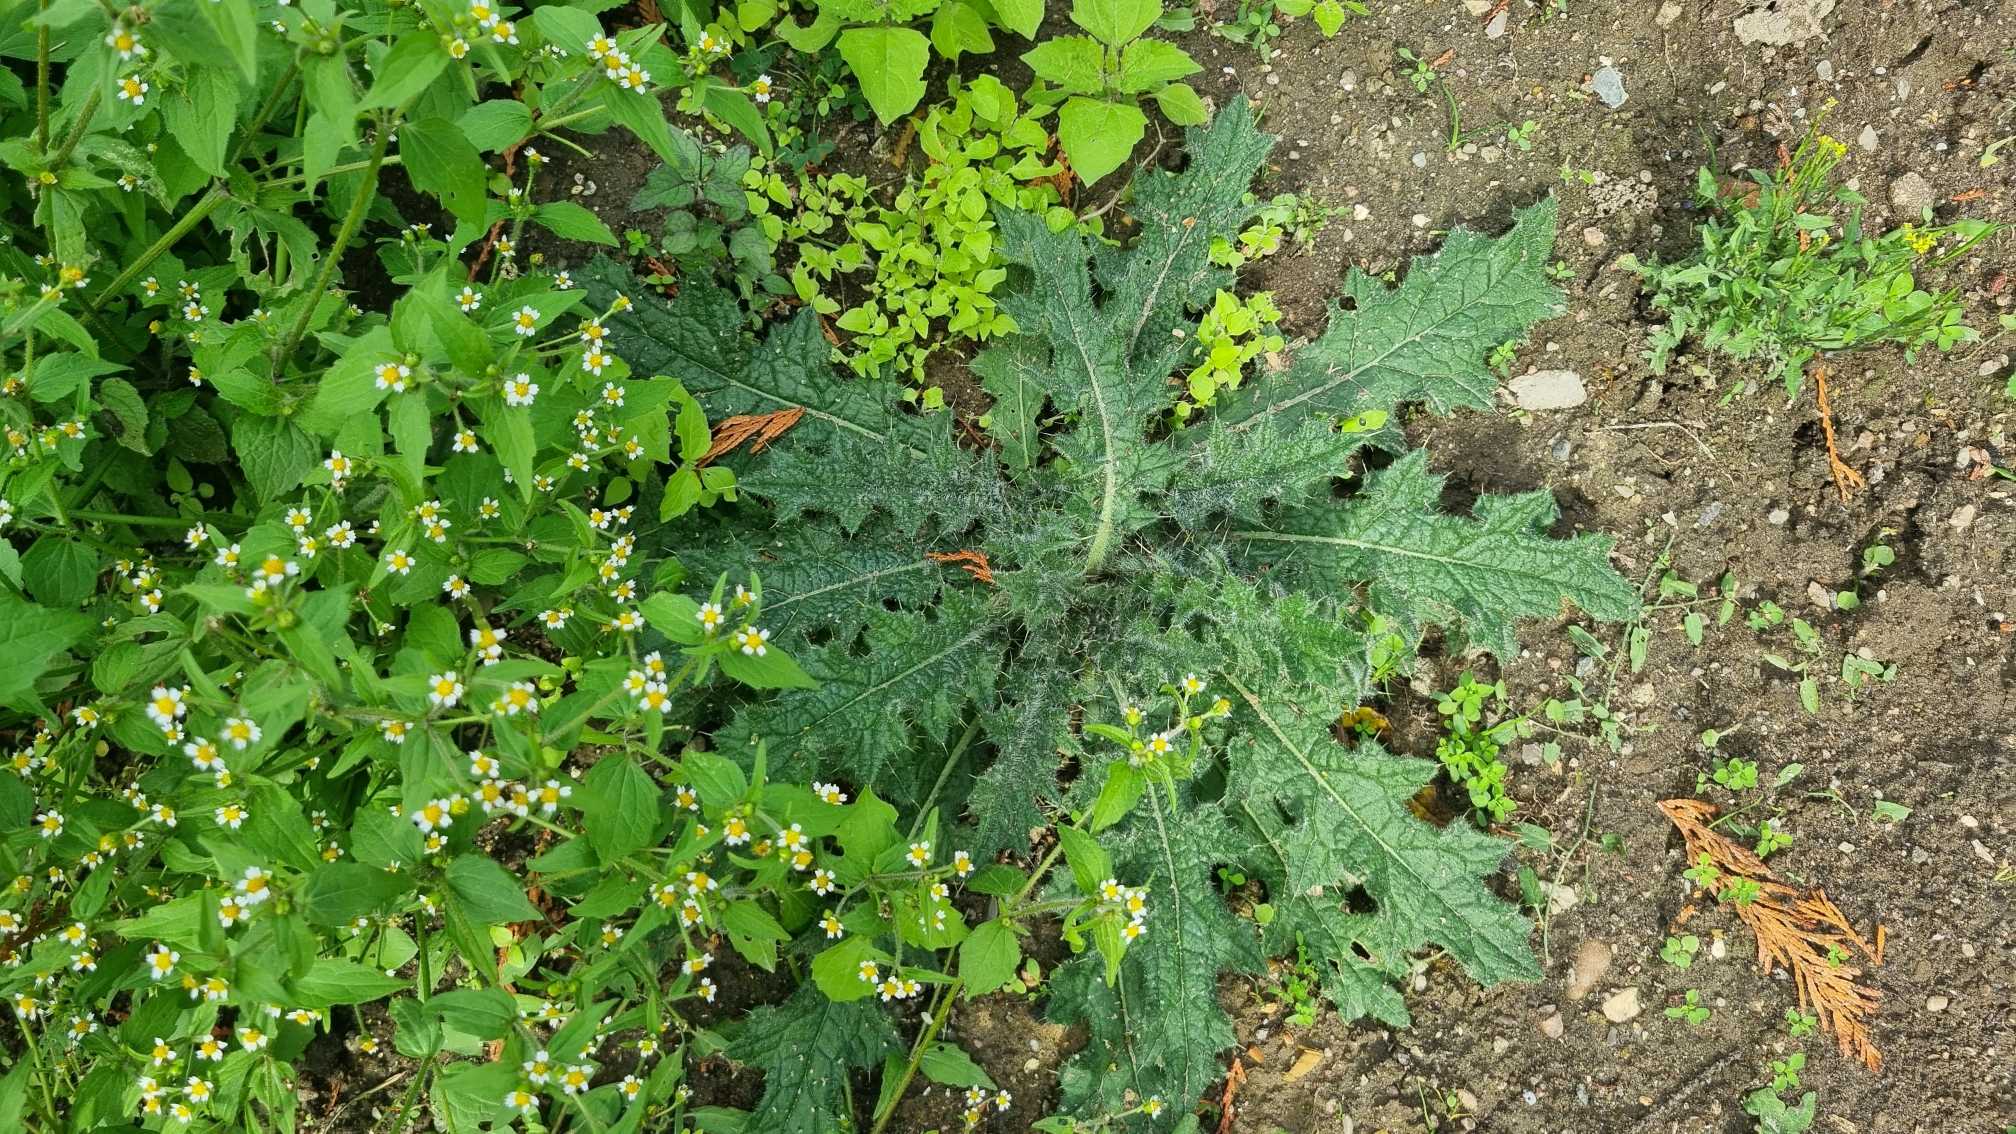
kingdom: Plantae
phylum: Tracheophyta
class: Magnoliopsida
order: Asterales
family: Asteraceae
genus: Cirsium
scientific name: Cirsium vulgare
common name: Horse-tidsel
